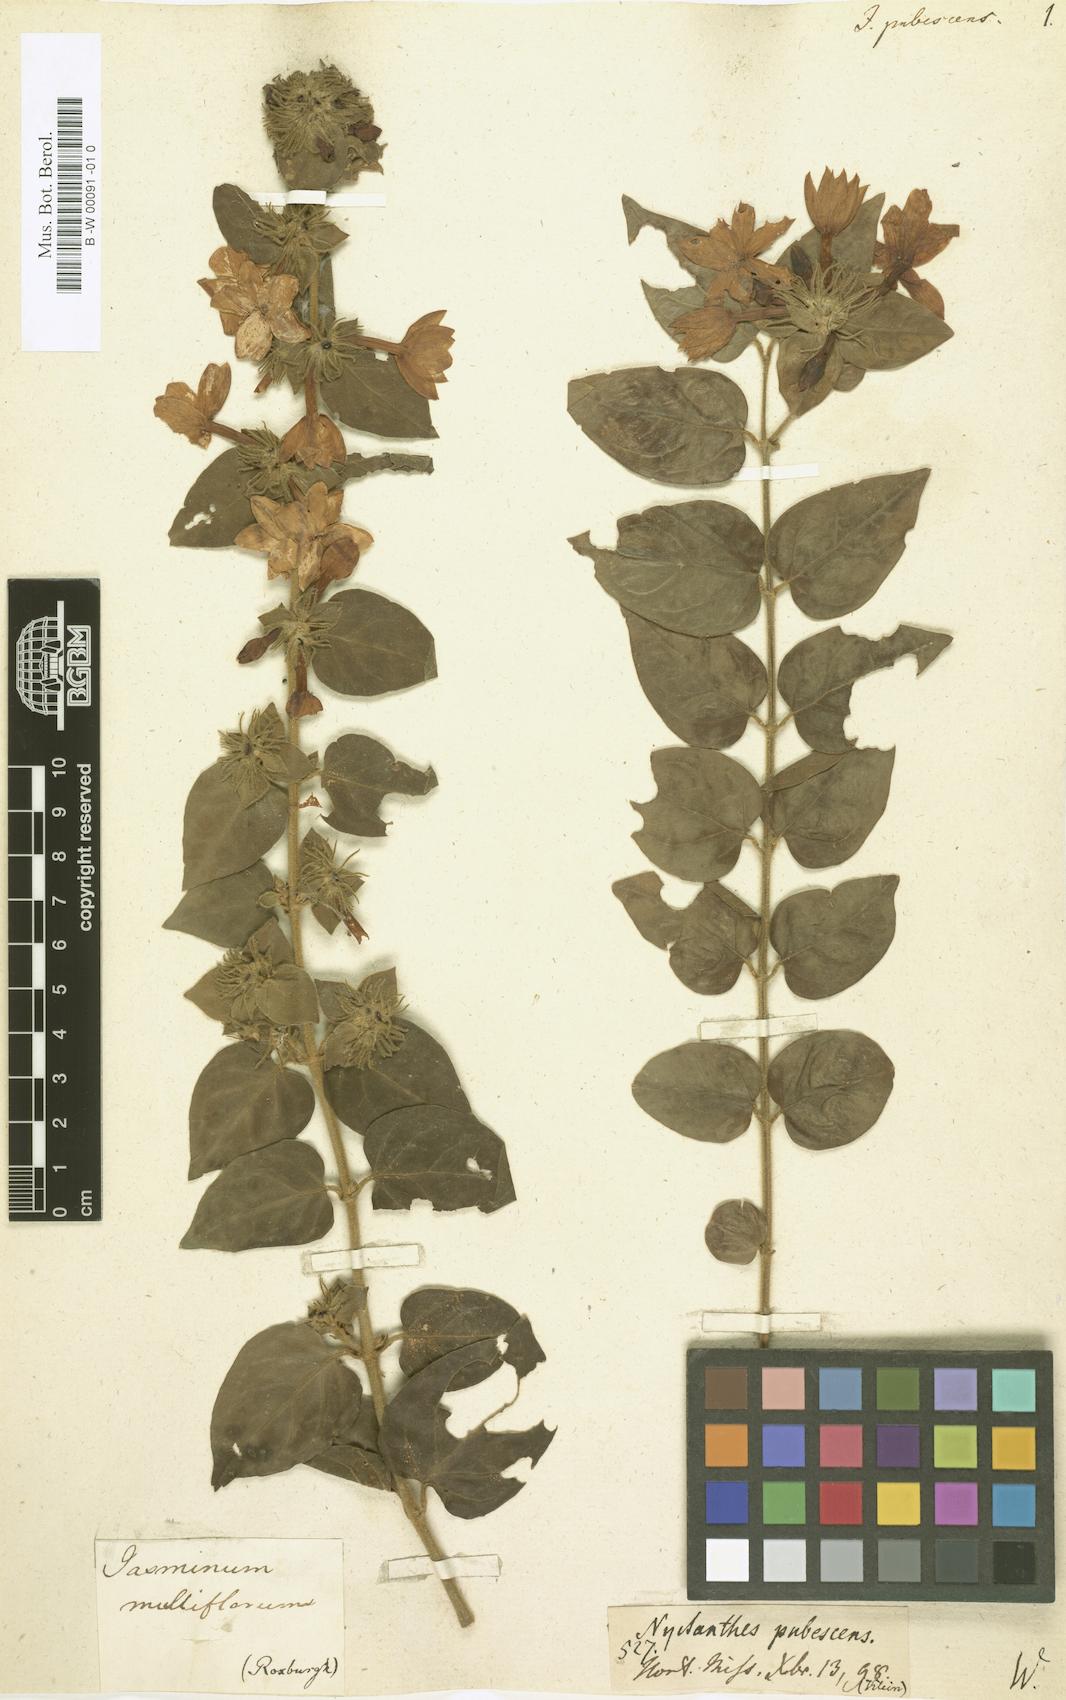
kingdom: Plantae
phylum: Tracheophyta
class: Magnoliopsida
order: Lamiales
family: Oleaceae
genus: Jasminum
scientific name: Jasminum multiflorum
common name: Star jasmine
